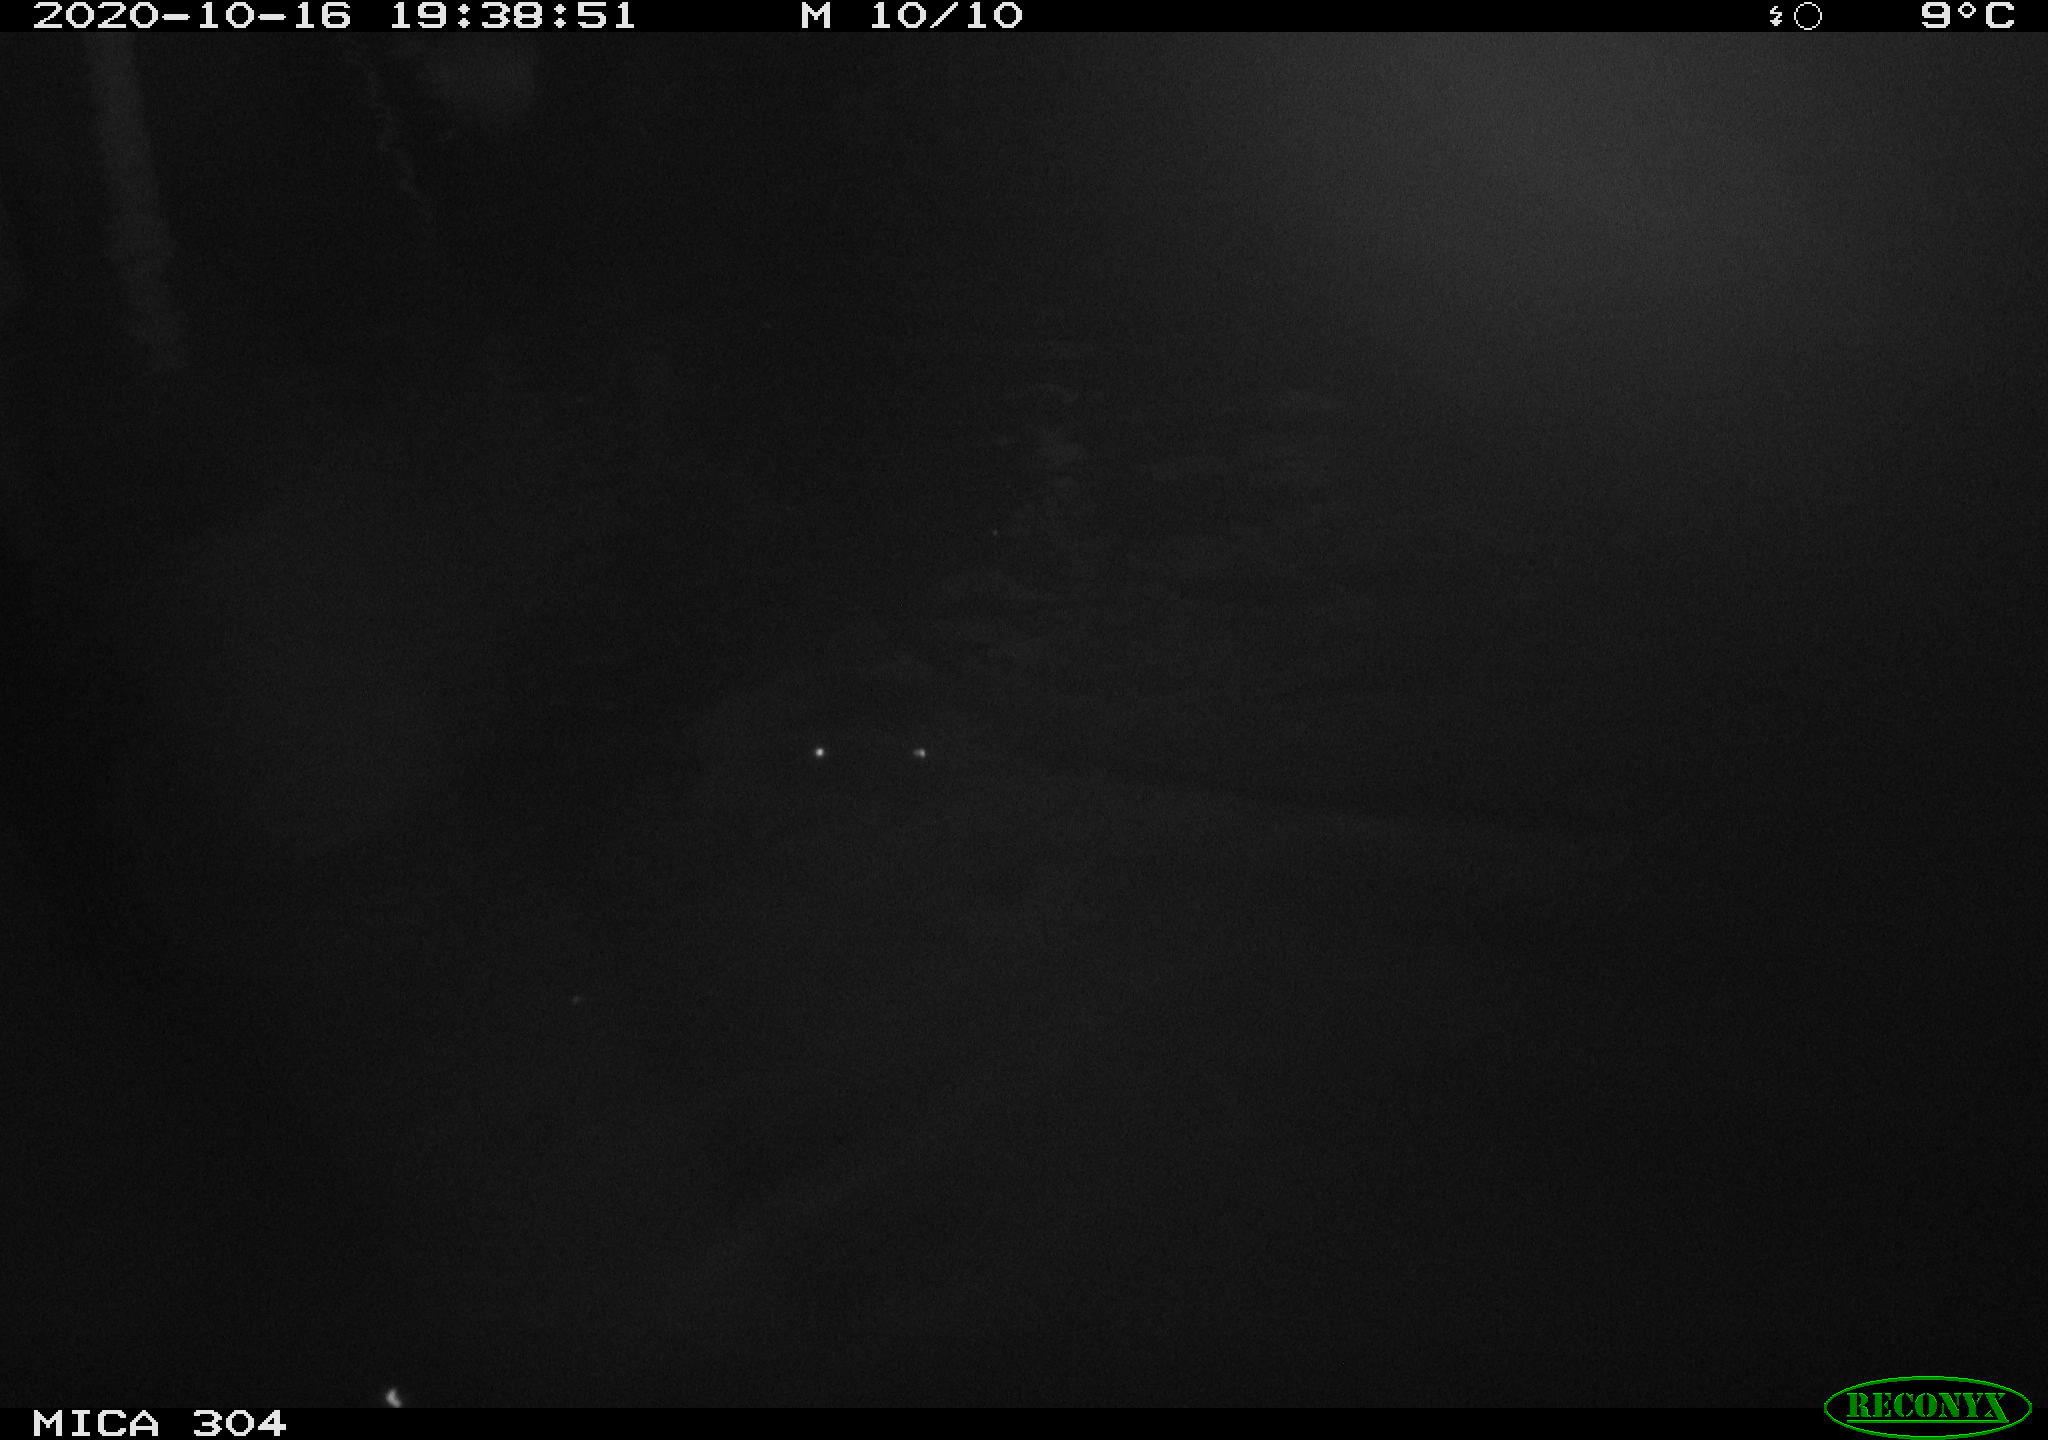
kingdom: Animalia
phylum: Chordata
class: Mammalia
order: Rodentia
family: Cricetidae
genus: Ondatra
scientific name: Ondatra zibethicus
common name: Muskrat
